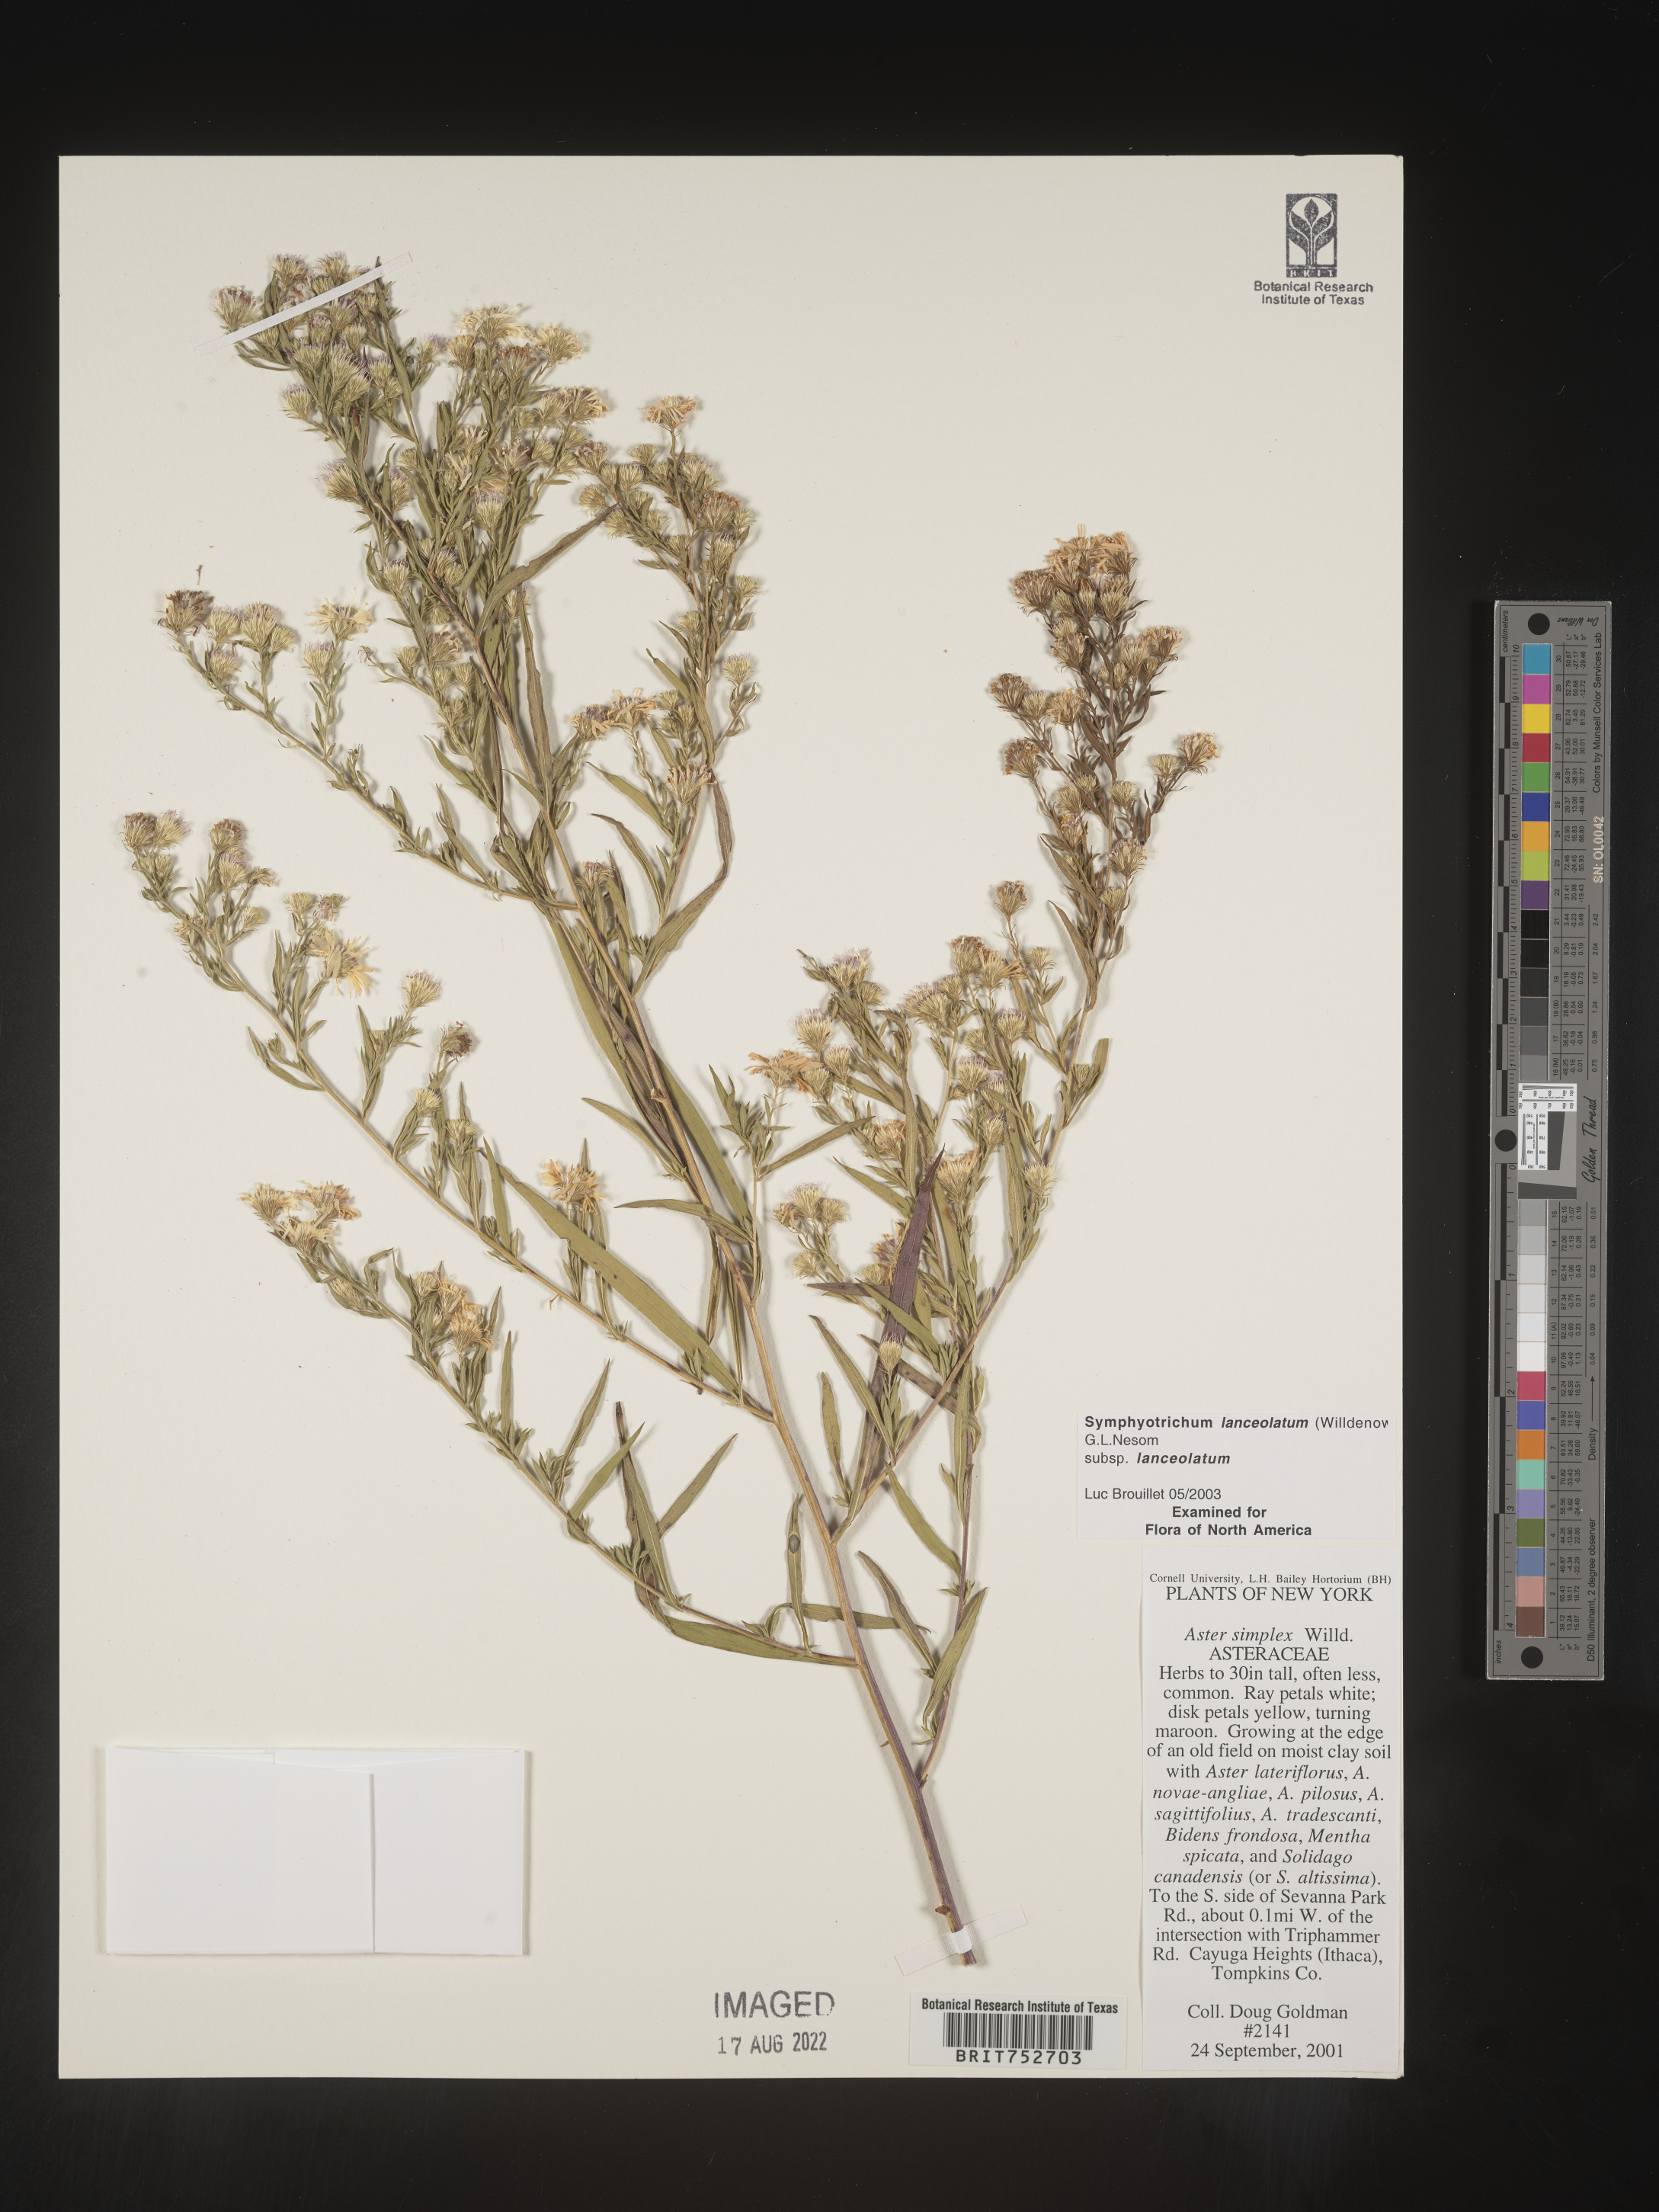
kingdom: Plantae
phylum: Tracheophyta
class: Magnoliopsida
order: Asterales
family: Asteraceae
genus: Symphyotrichum
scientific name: Symphyotrichum lanceolatum
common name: Panicled aster
